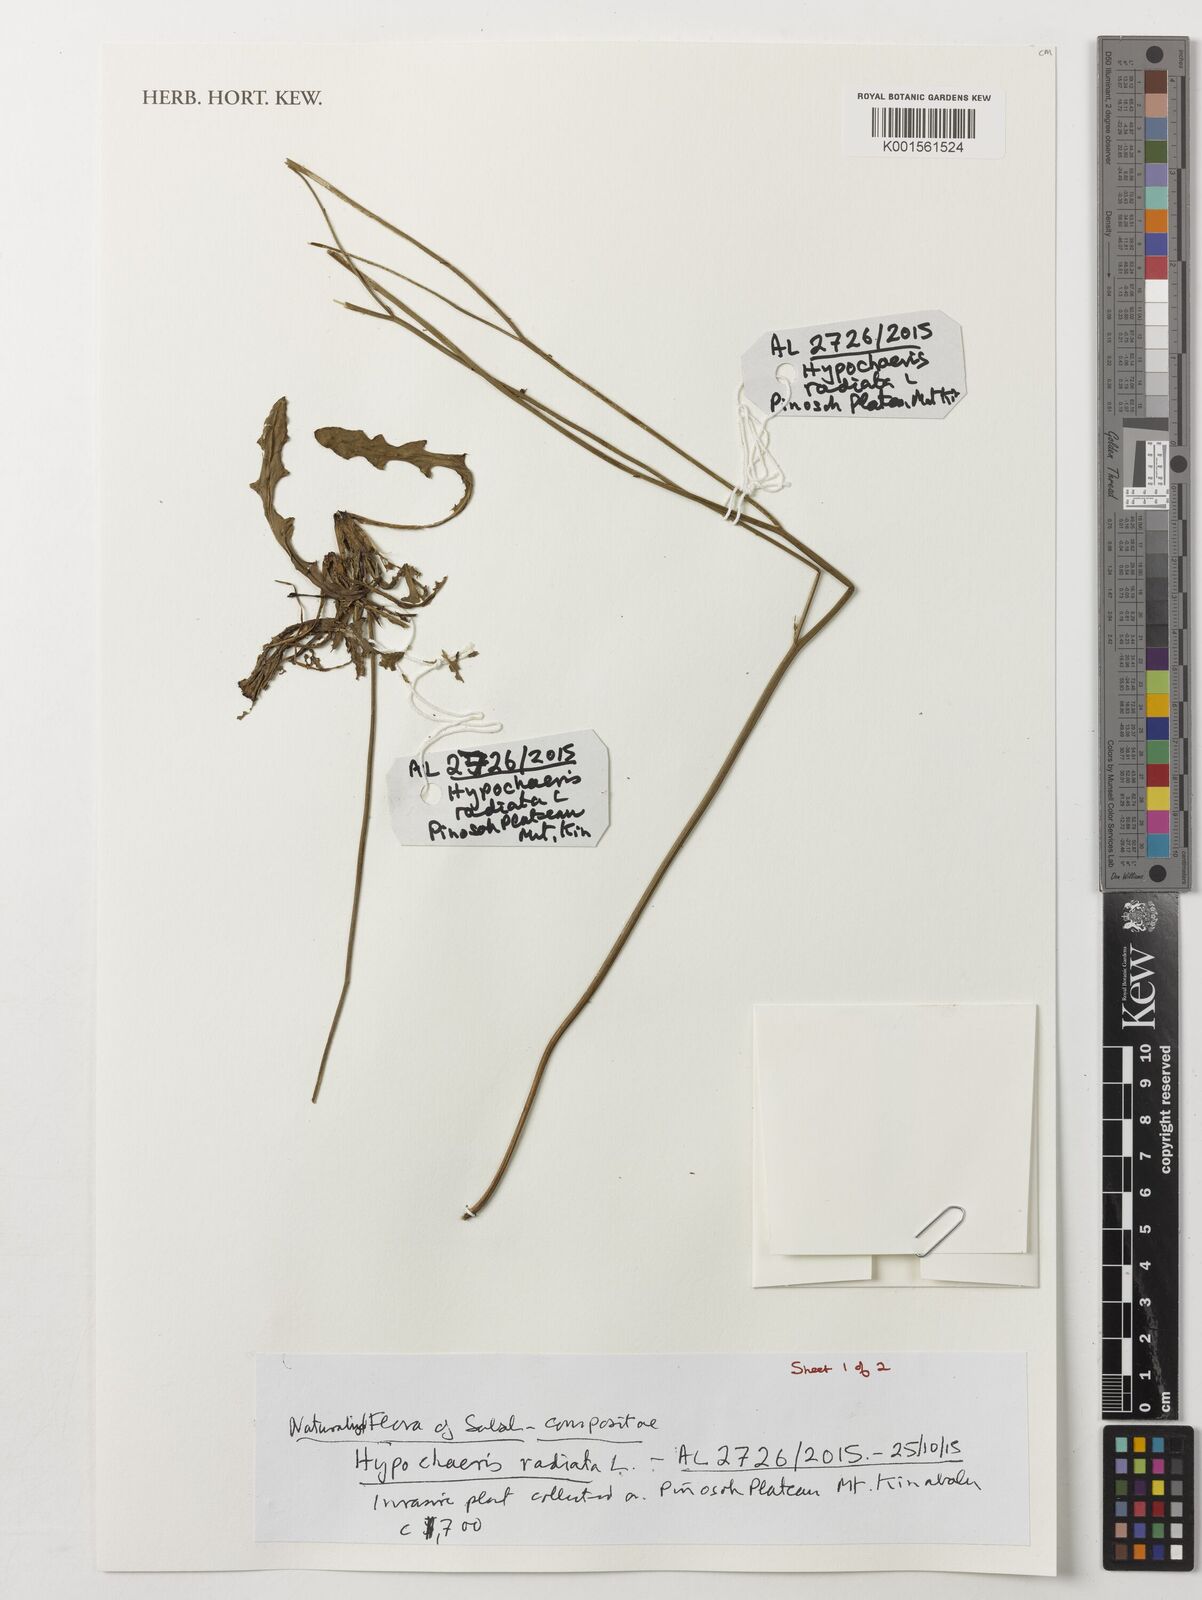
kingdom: Plantae
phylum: Tracheophyta
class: Magnoliopsida
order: Asterales
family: Asteraceae
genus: Hypochaeris
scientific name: Hypochaeris radicata
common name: Flatweed
